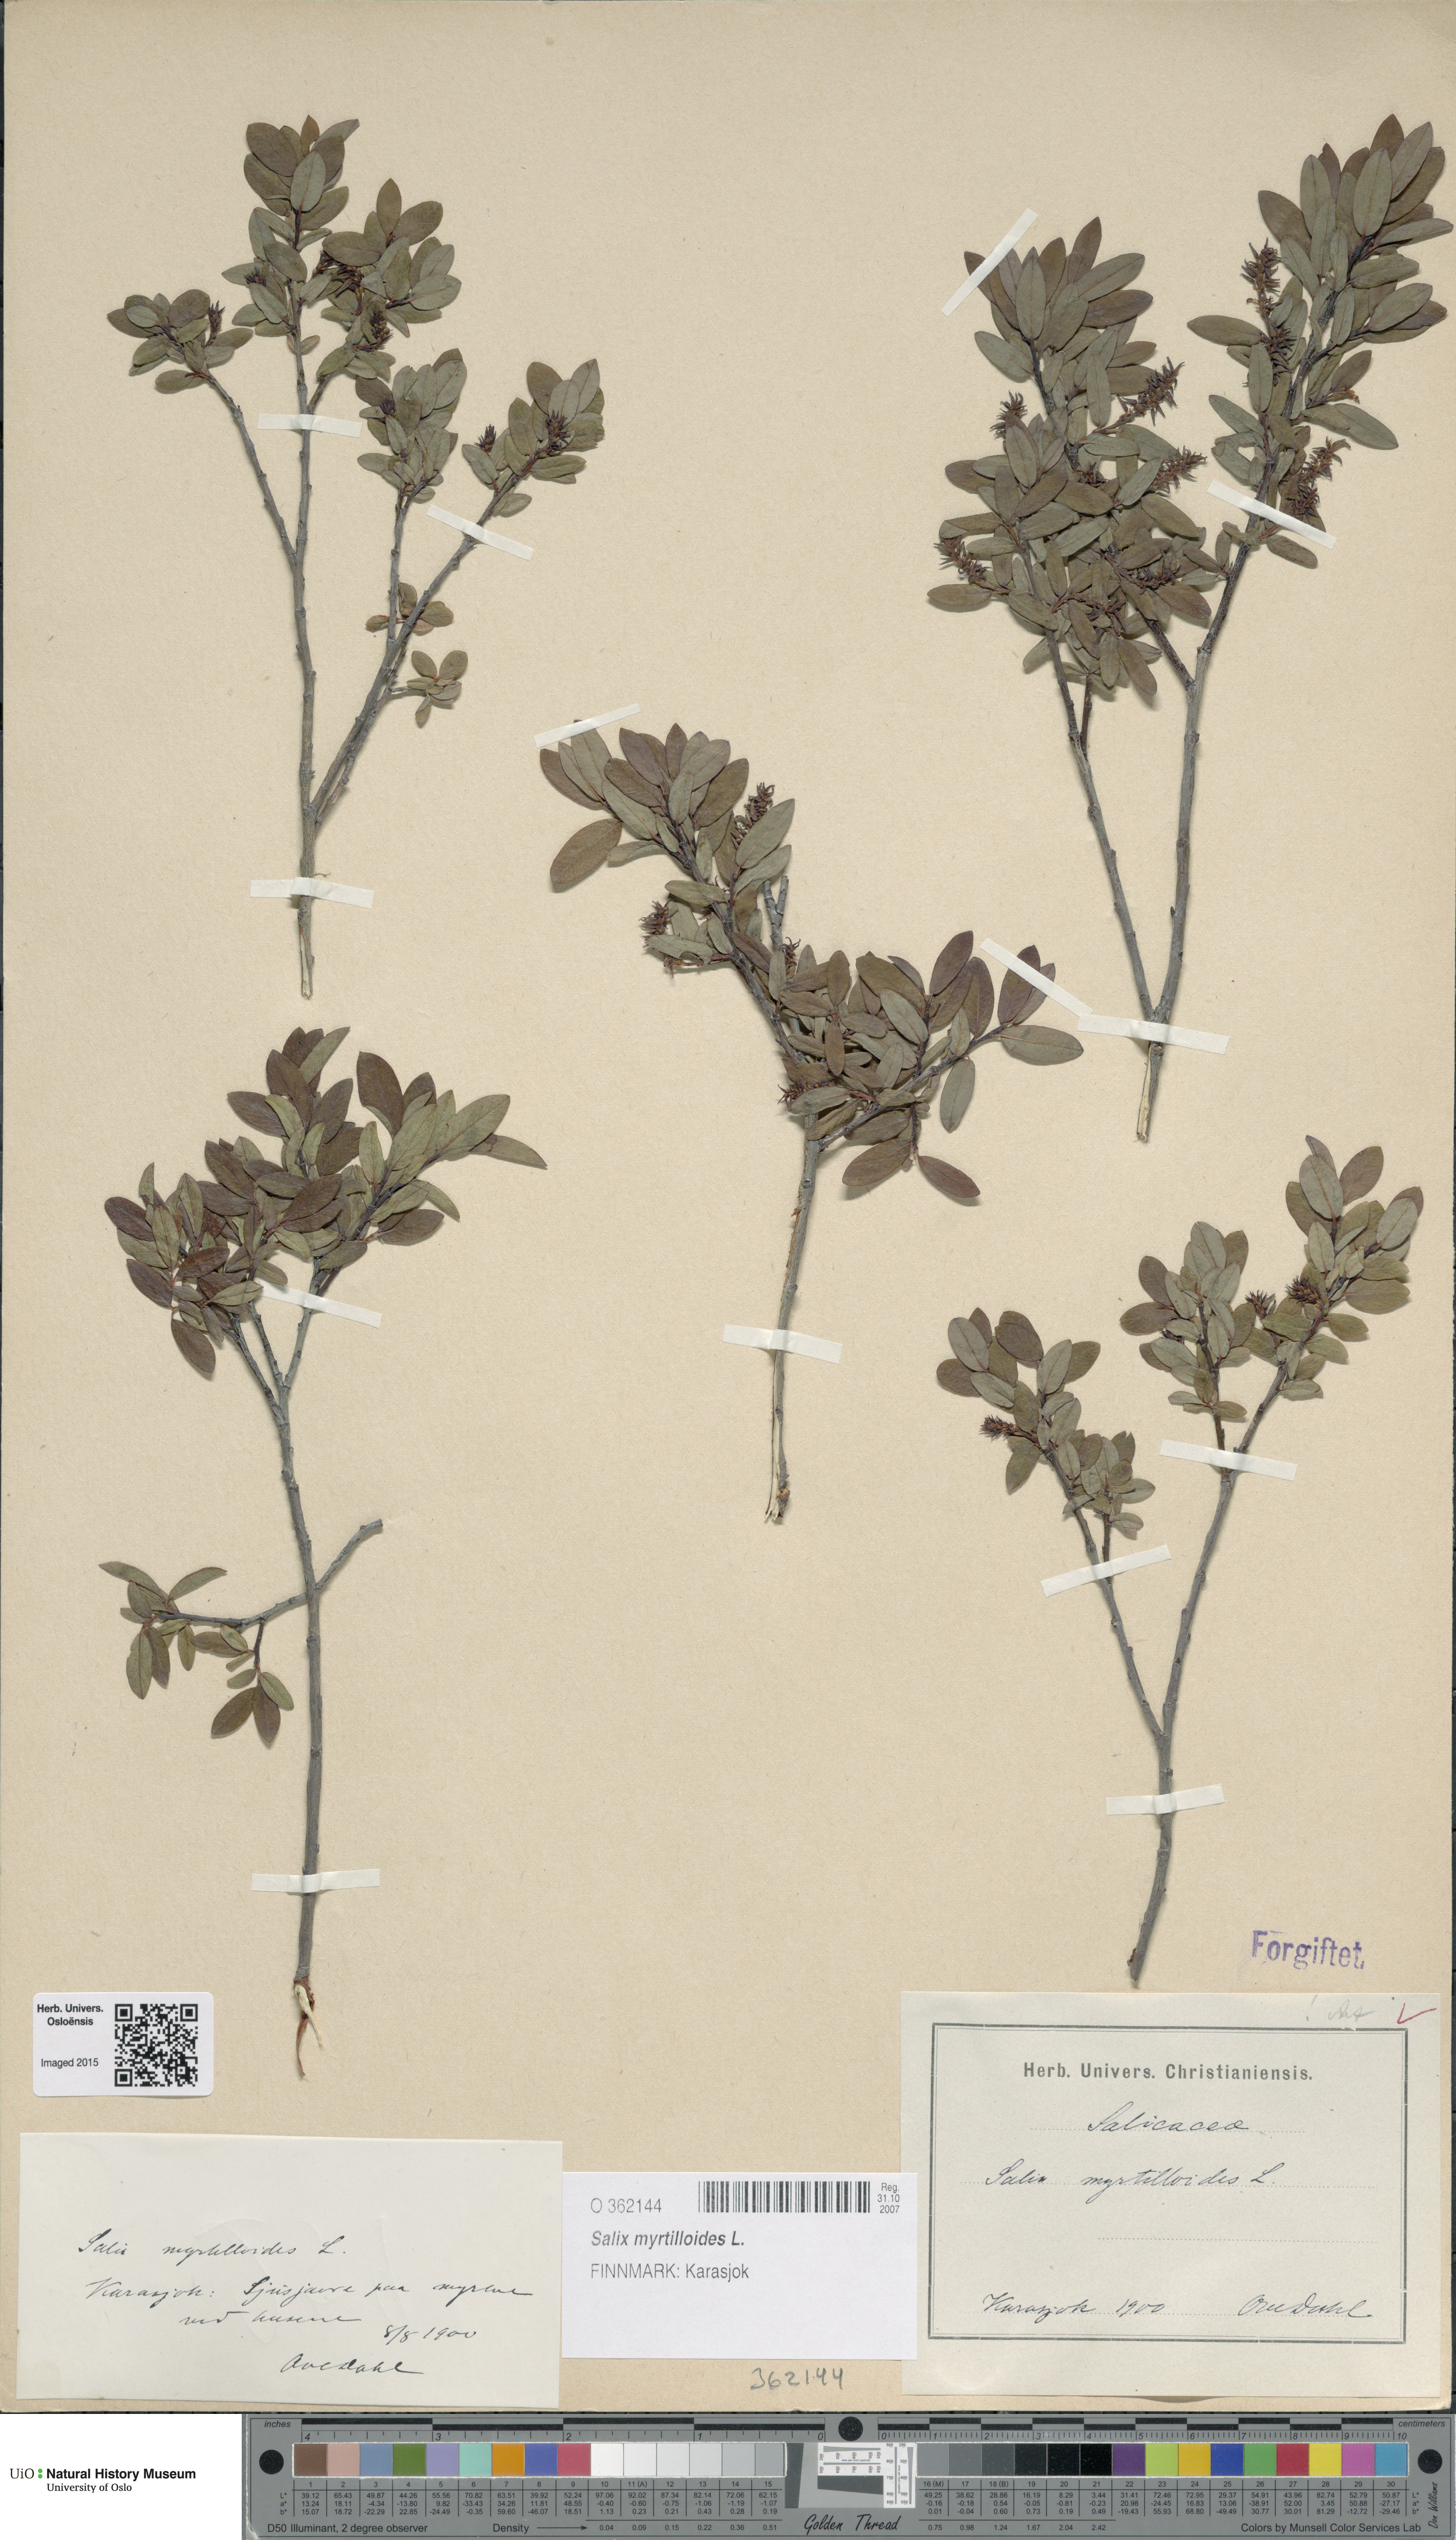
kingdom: Plantae
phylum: Tracheophyta
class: Magnoliopsida
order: Malpighiales
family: Salicaceae
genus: Salix
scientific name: Salix myrtilloides
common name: Myrtle-leaved willow
